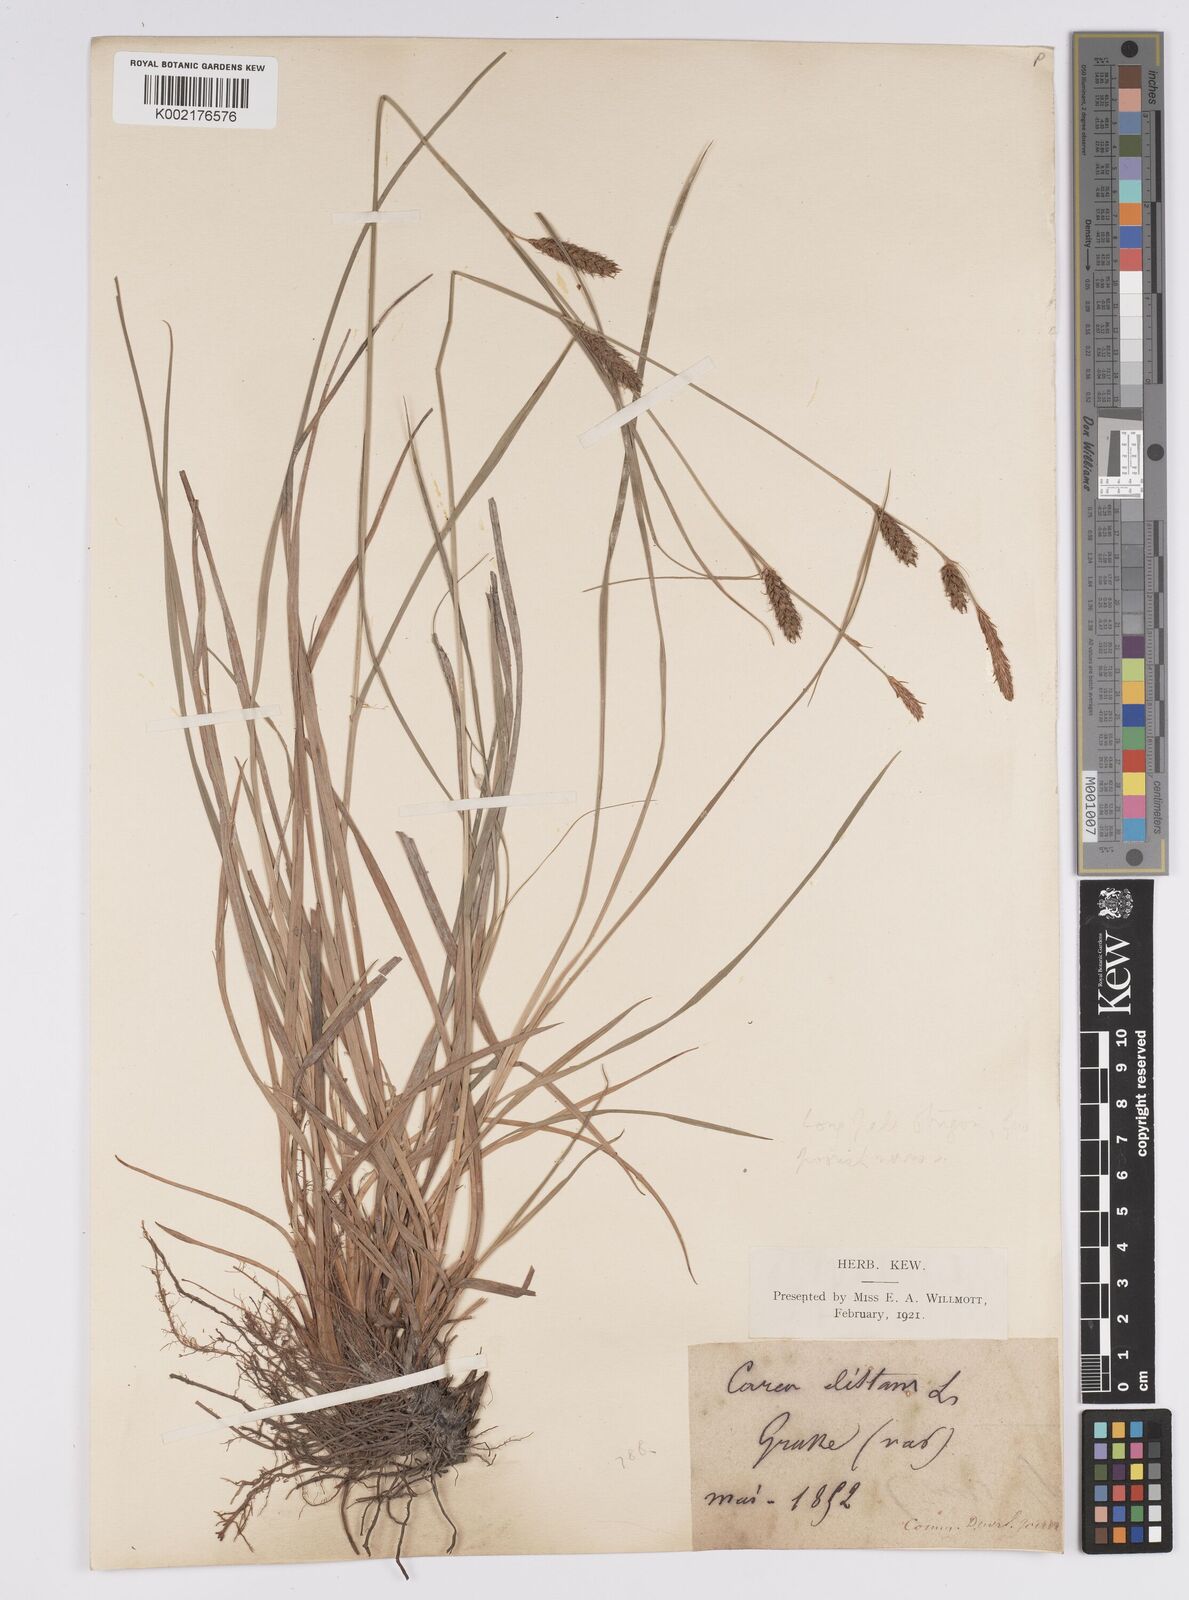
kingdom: Plantae
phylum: Tracheophyta
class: Liliopsida
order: Poales
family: Cyperaceae
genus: Carex
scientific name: Carex distans
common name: Distant sedge
